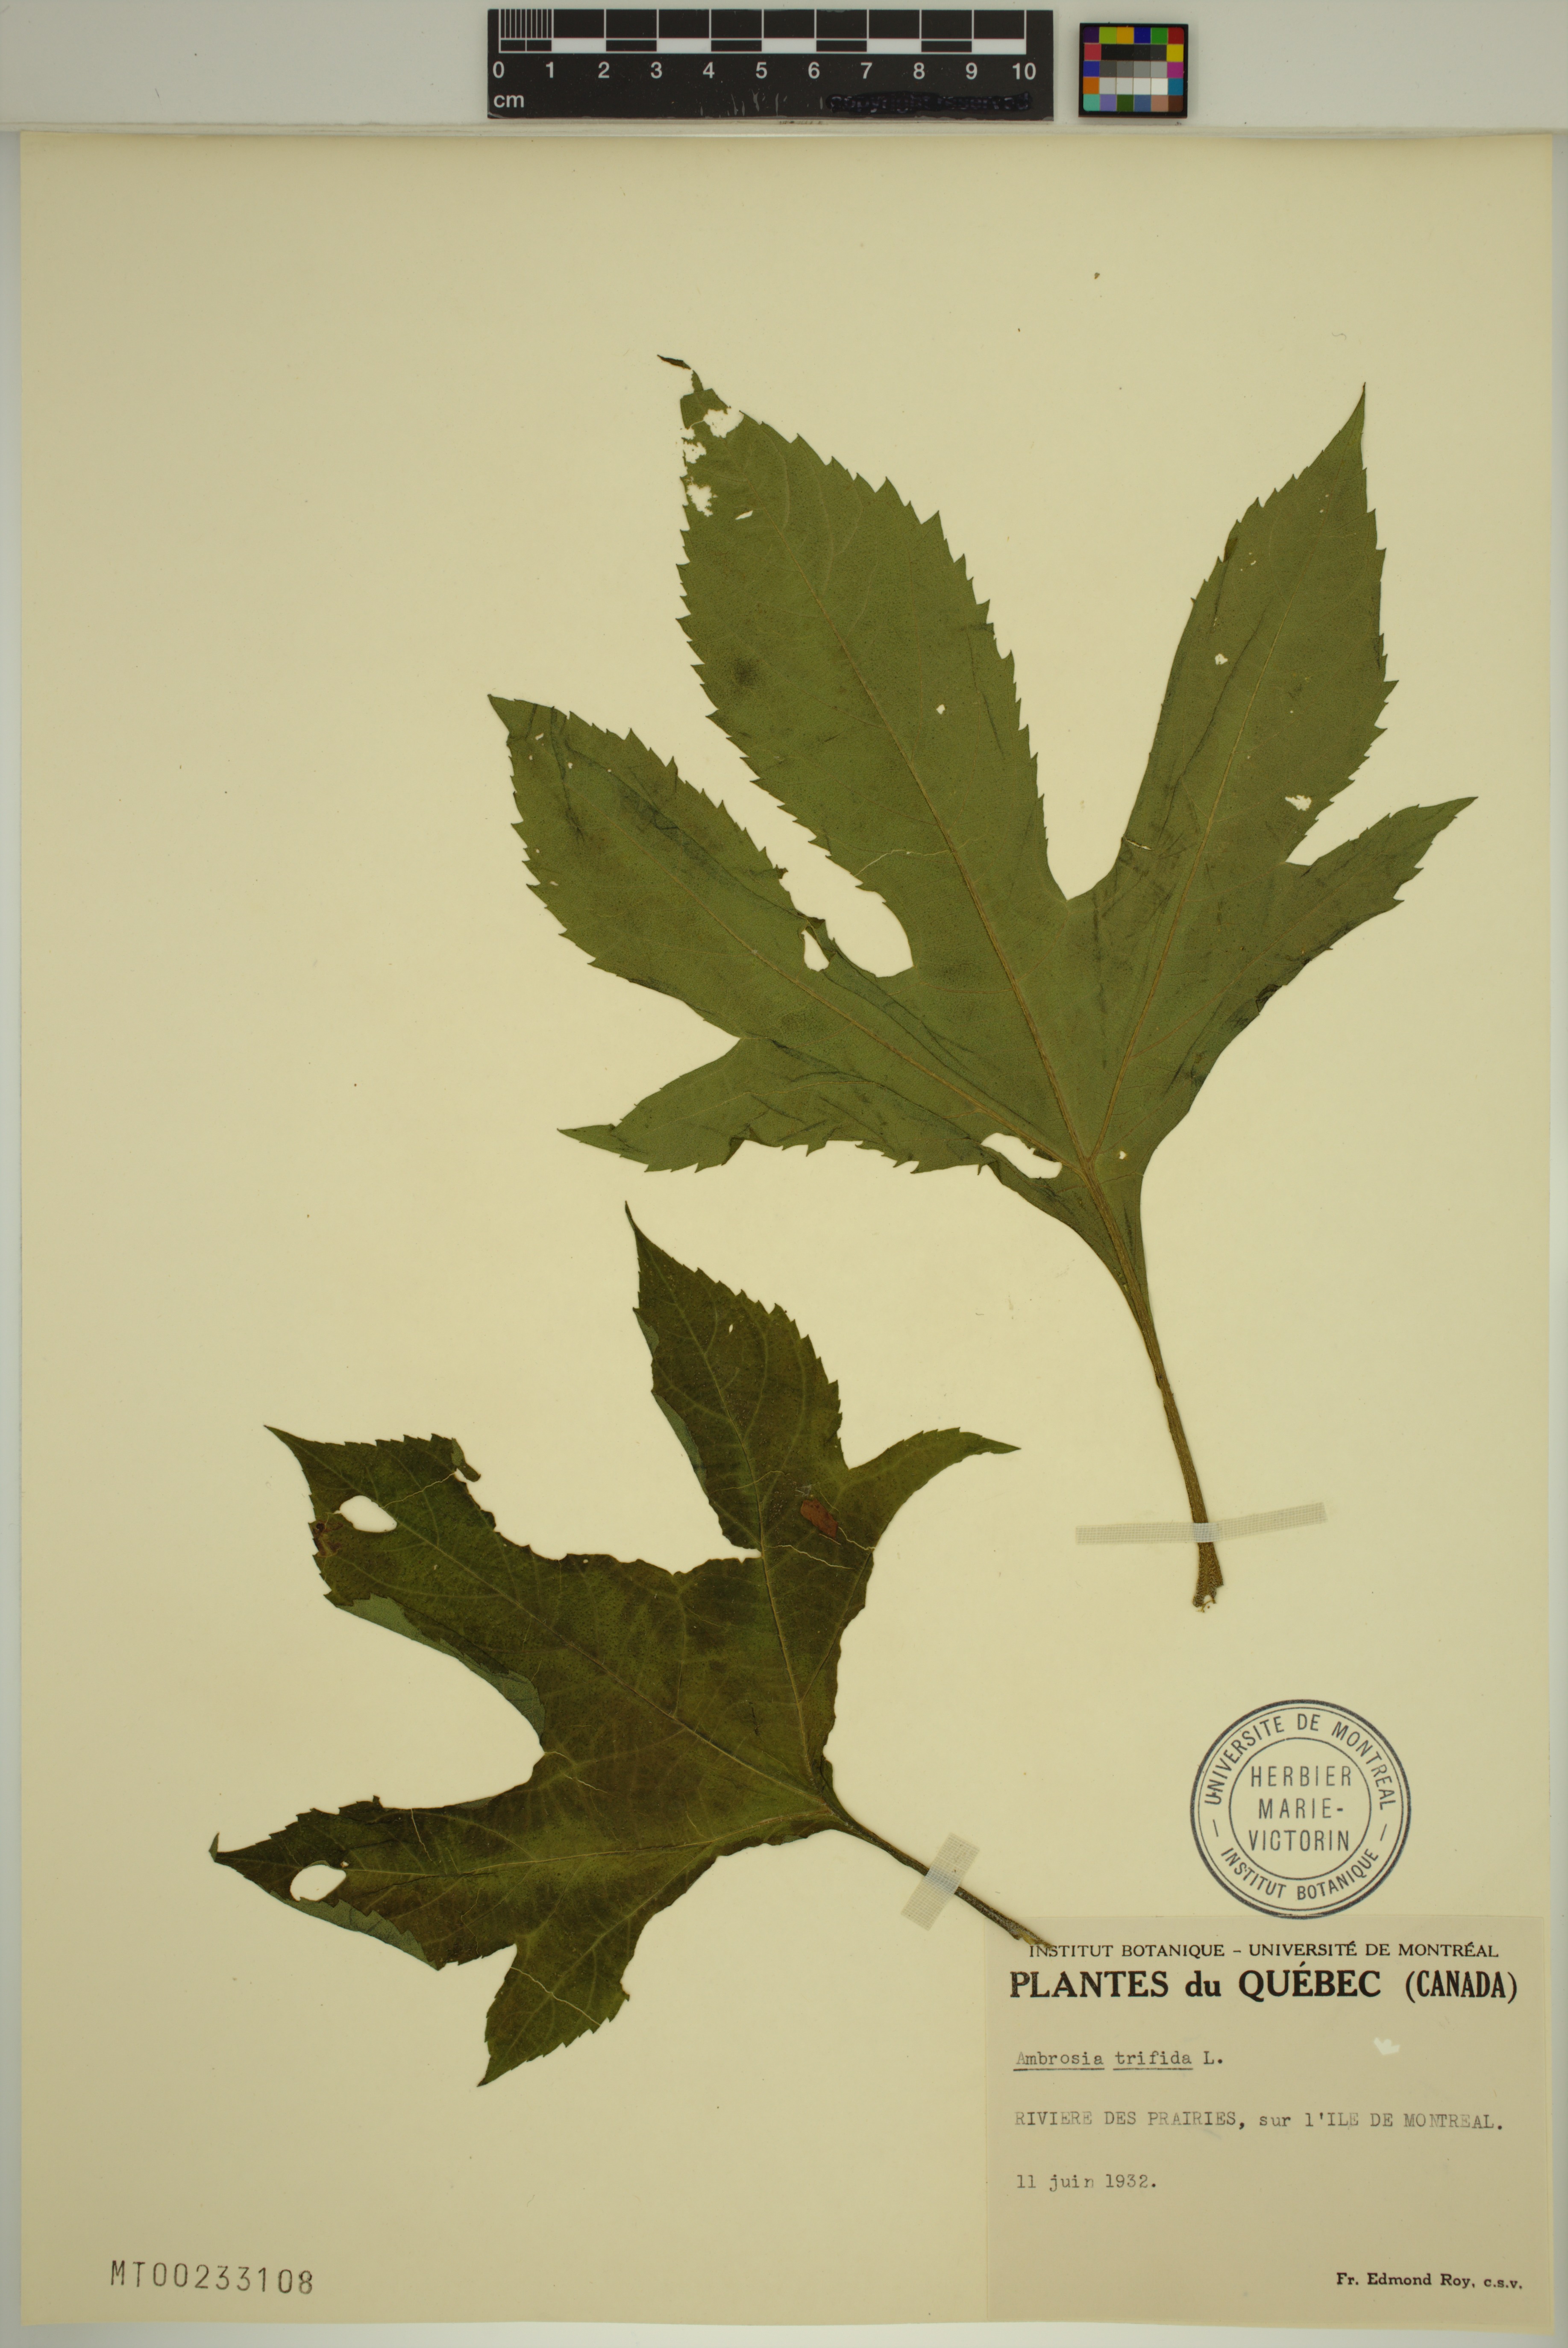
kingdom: Plantae
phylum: Tracheophyta
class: Magnoliopsida
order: Asterales
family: Asteraceae
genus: Ambrosia
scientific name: Ambrosia trifida
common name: Giant ragweed
